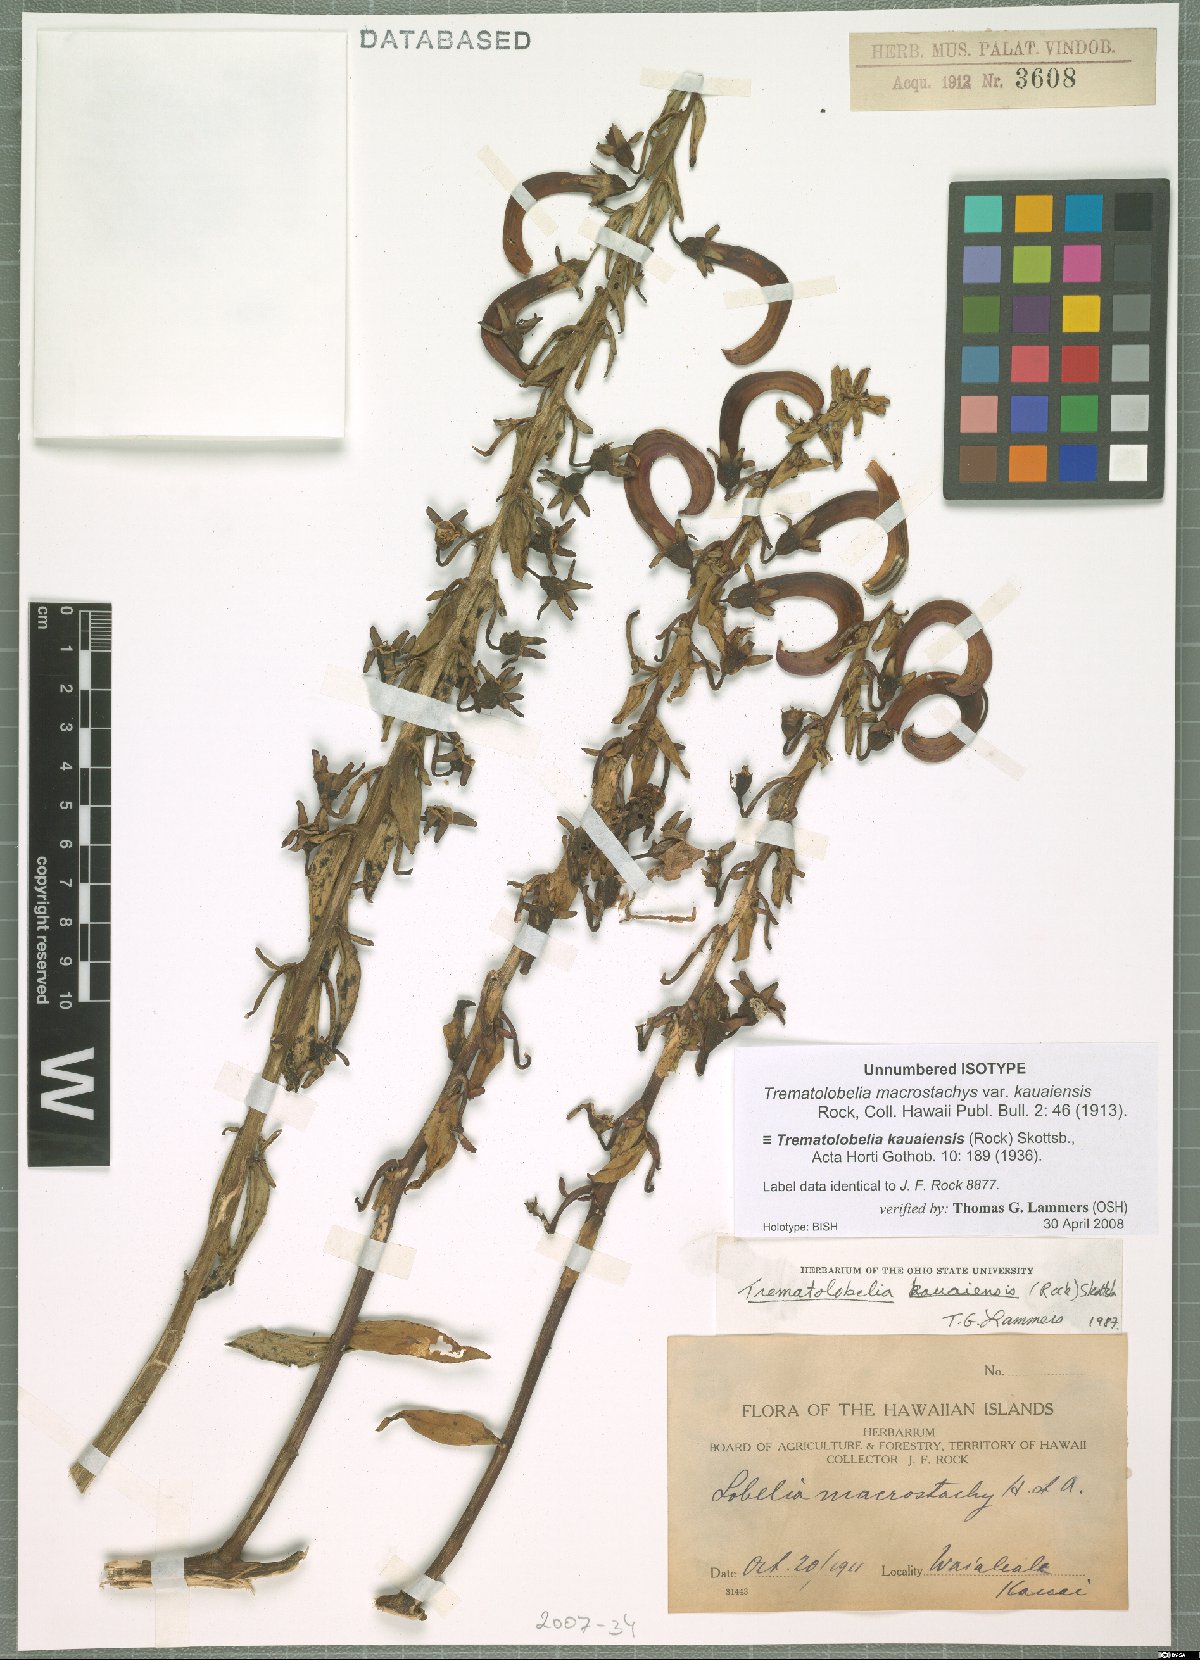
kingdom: Plantae
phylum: Tracheophyta
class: Magnoliopsida
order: Asterales
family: Campanulaceae
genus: Trematolobelia
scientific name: Trematolobelia kauaiensis
